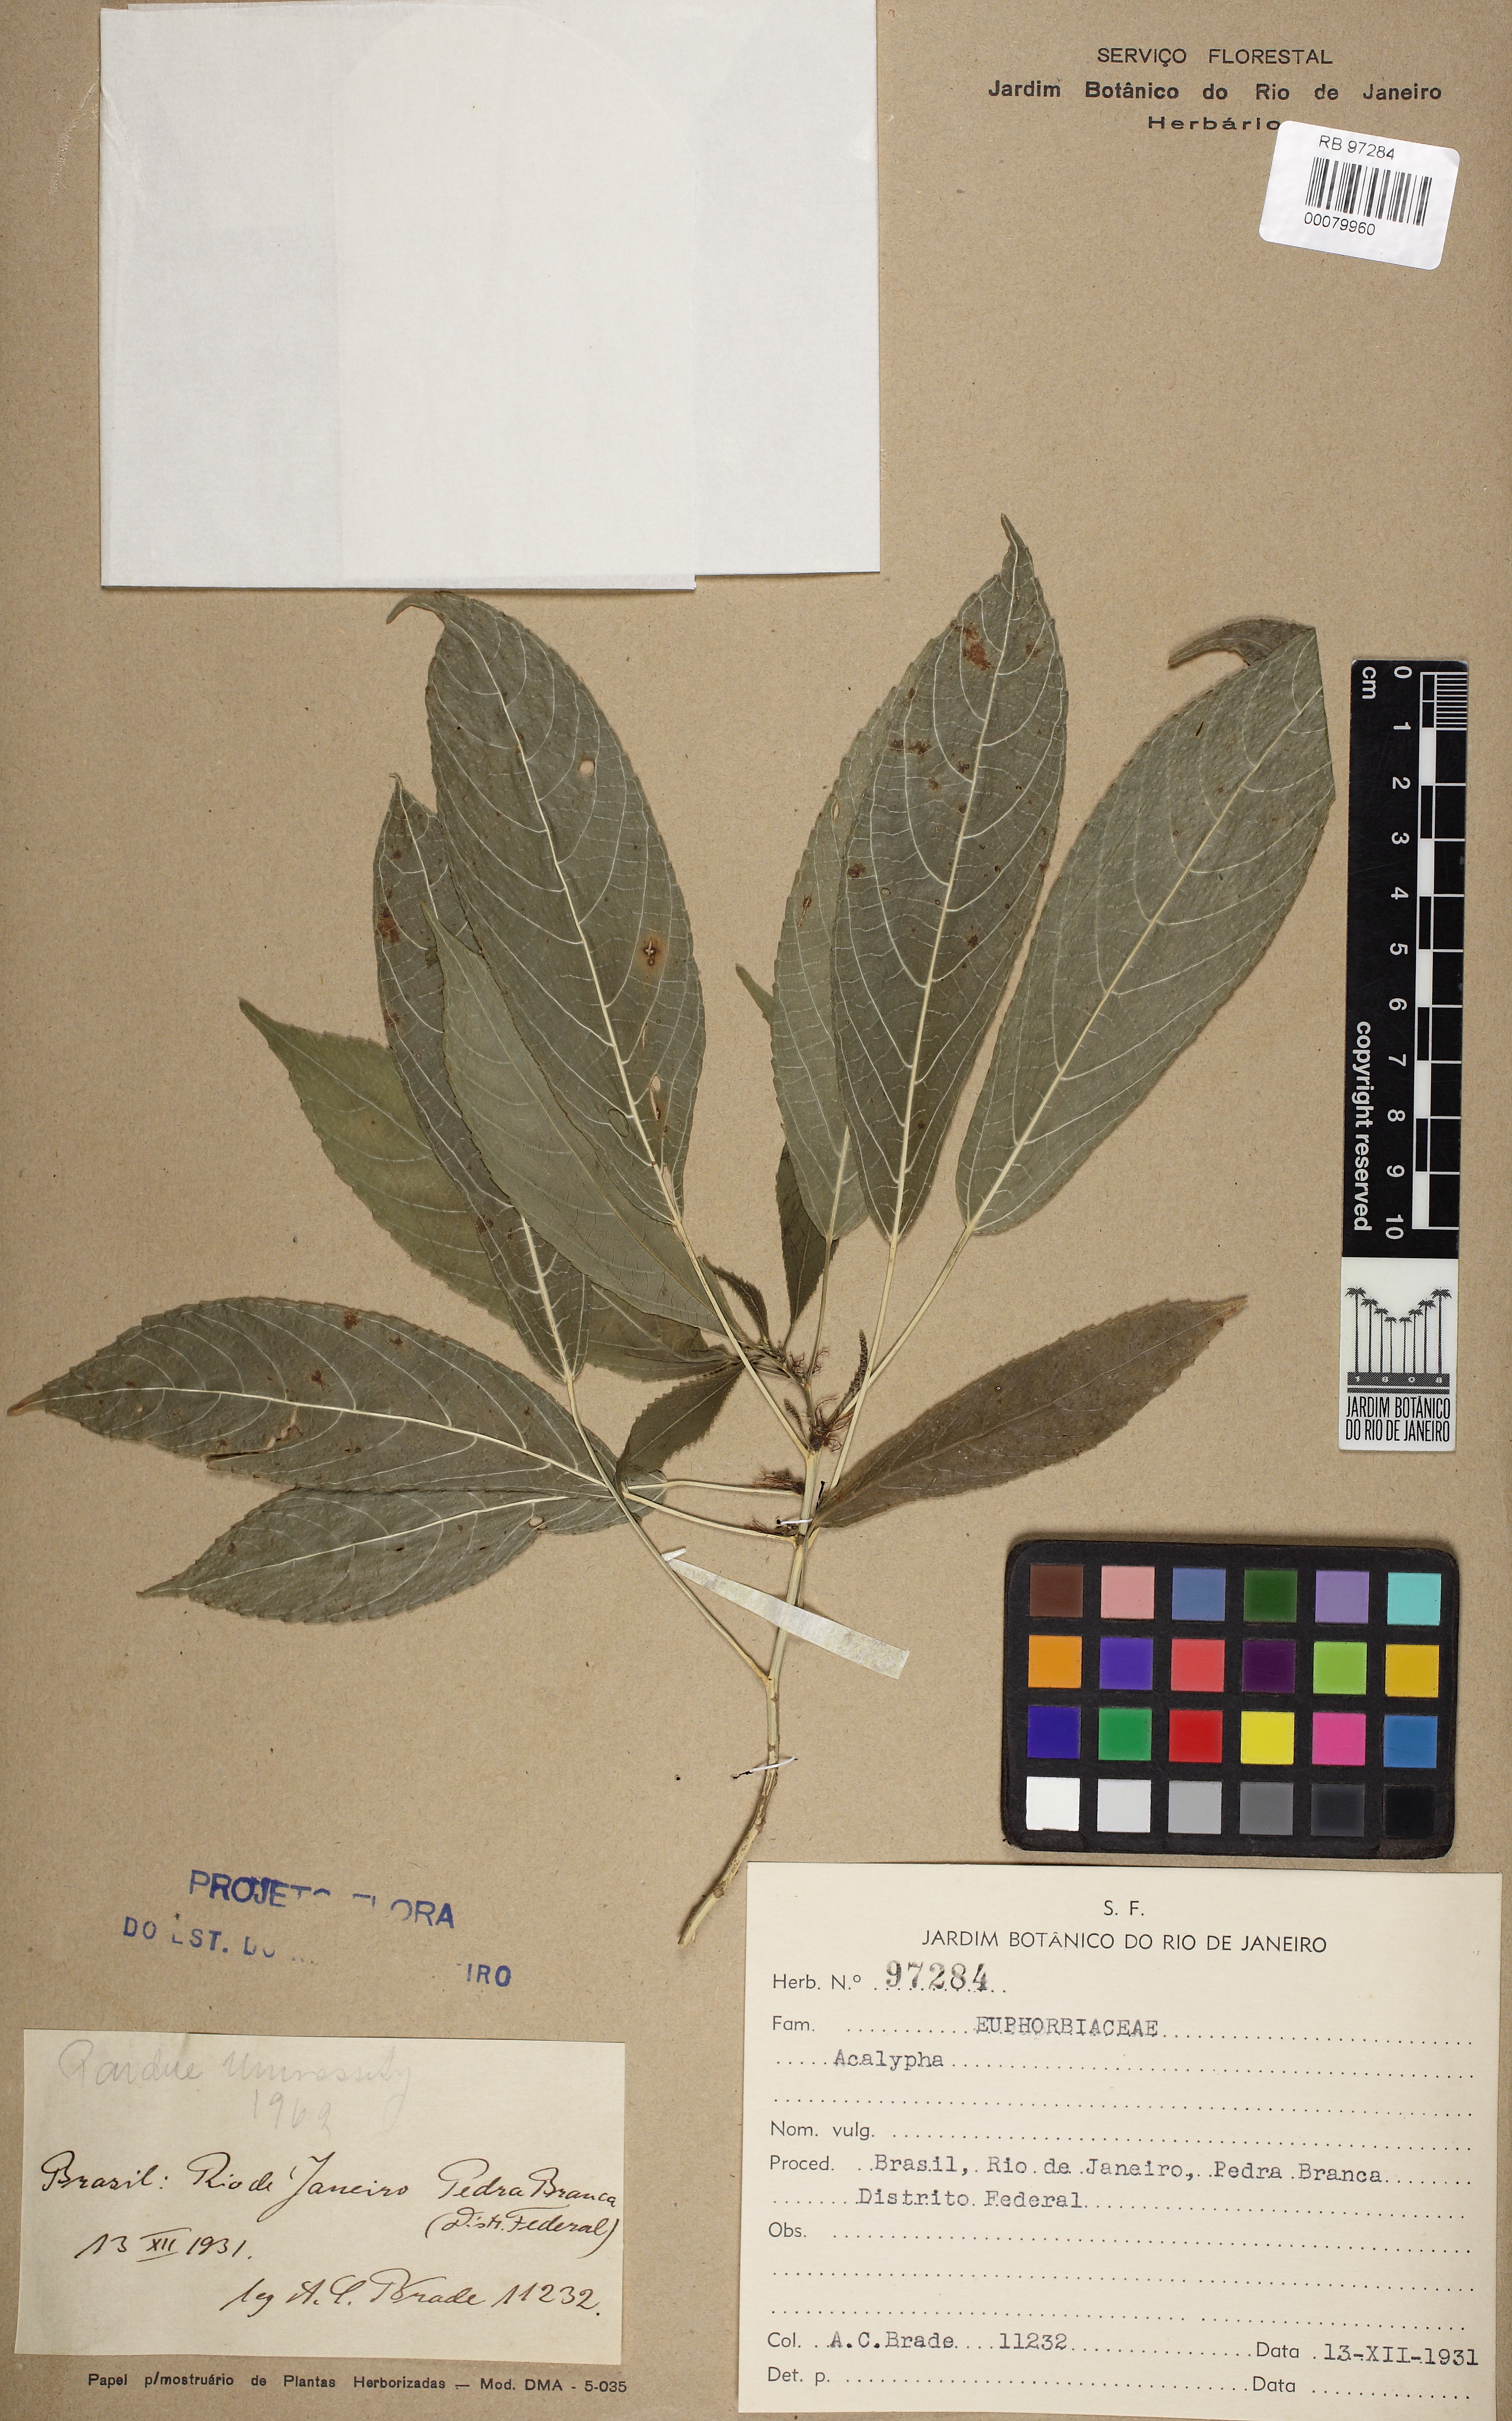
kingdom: Plantae
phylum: Tracheophyta
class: Magnoliopsida
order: Malpighiales
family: Euphorbiaceae
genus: Acalypha
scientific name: Acalypha
